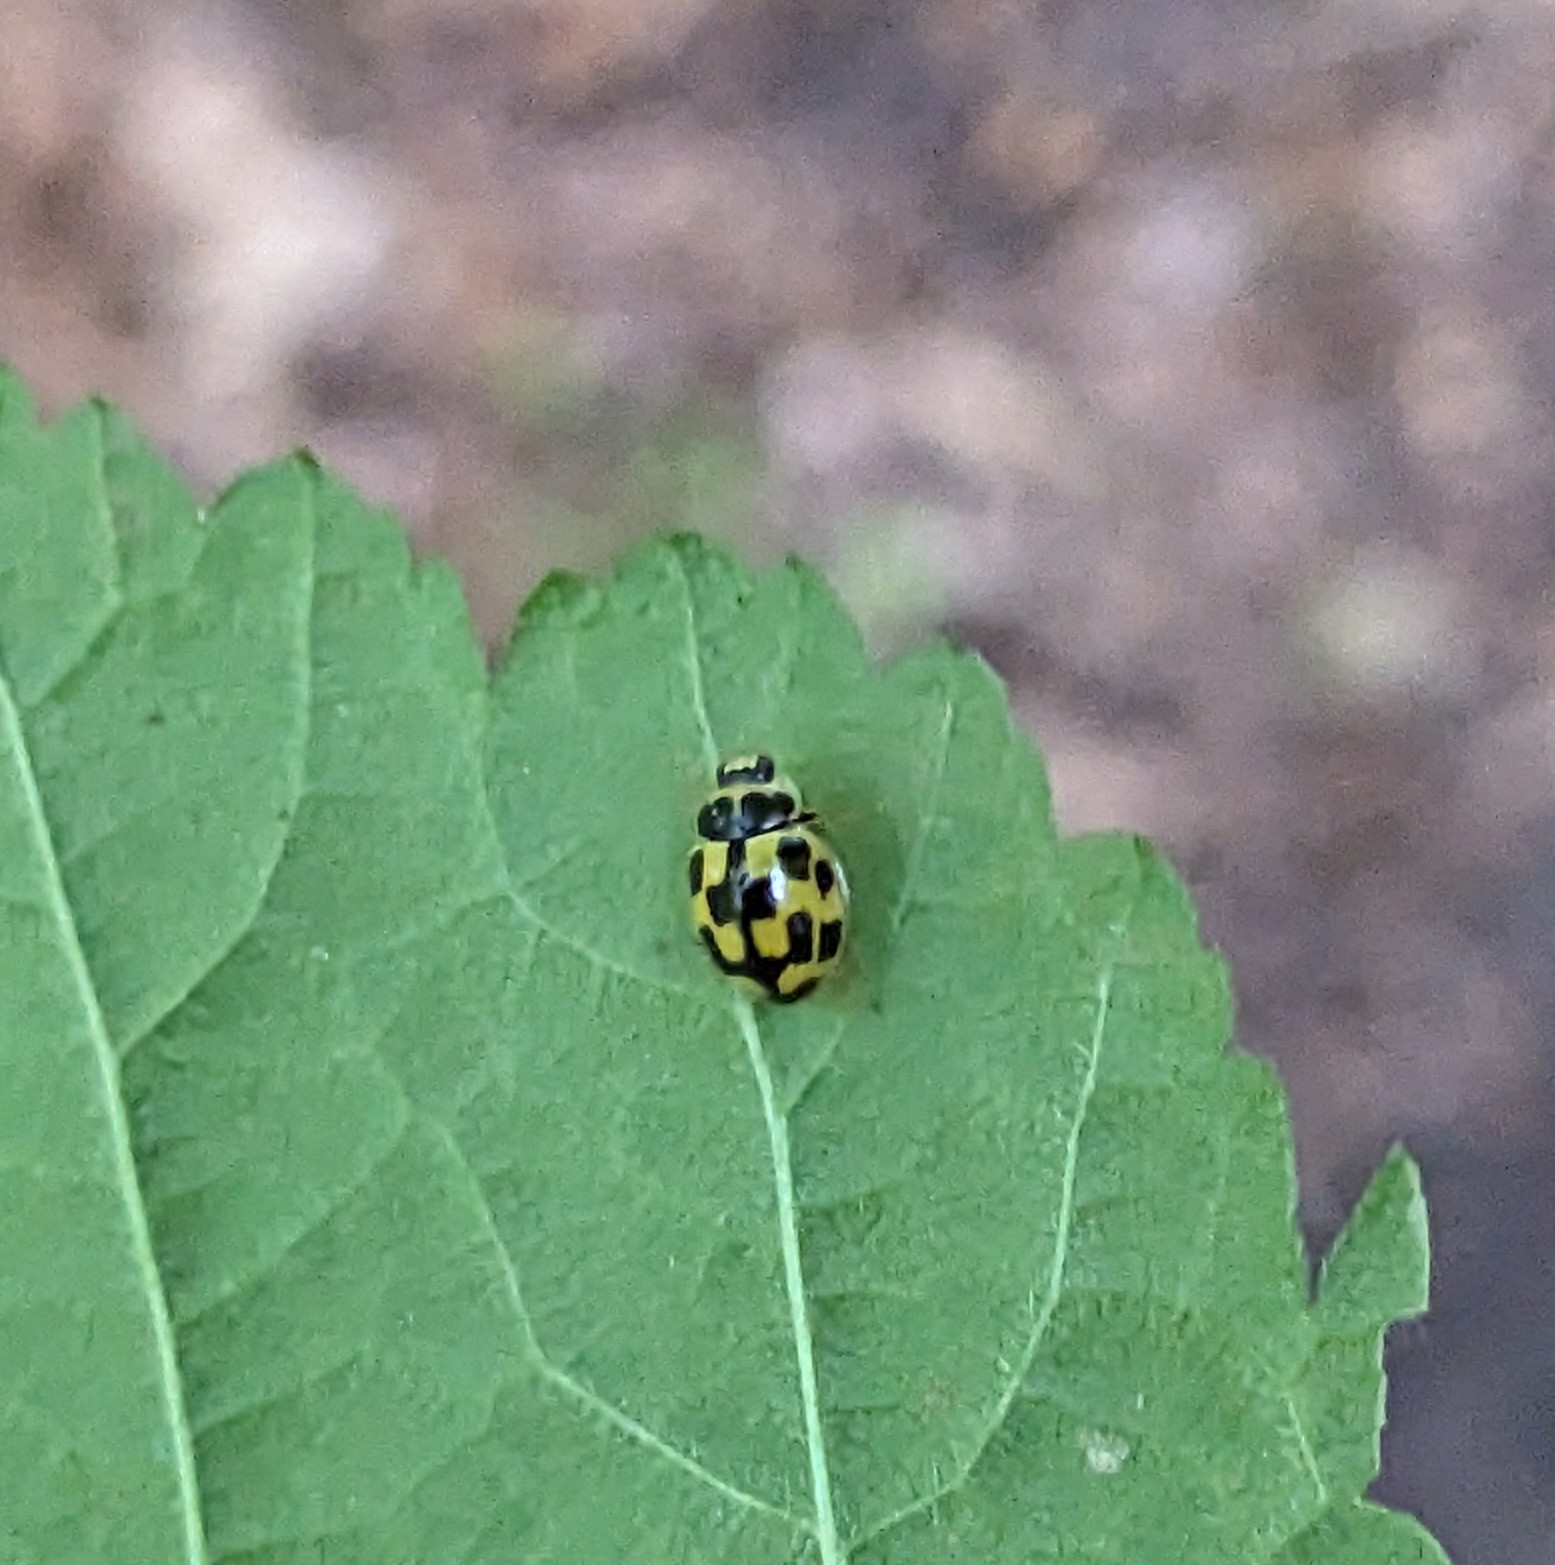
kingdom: Animalia
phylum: Arthropoda
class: Insecta
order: Coleoptera
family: Coccinellidae
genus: Propylaea
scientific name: Propylaea quatuordecimpunctata
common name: Skakbræt
